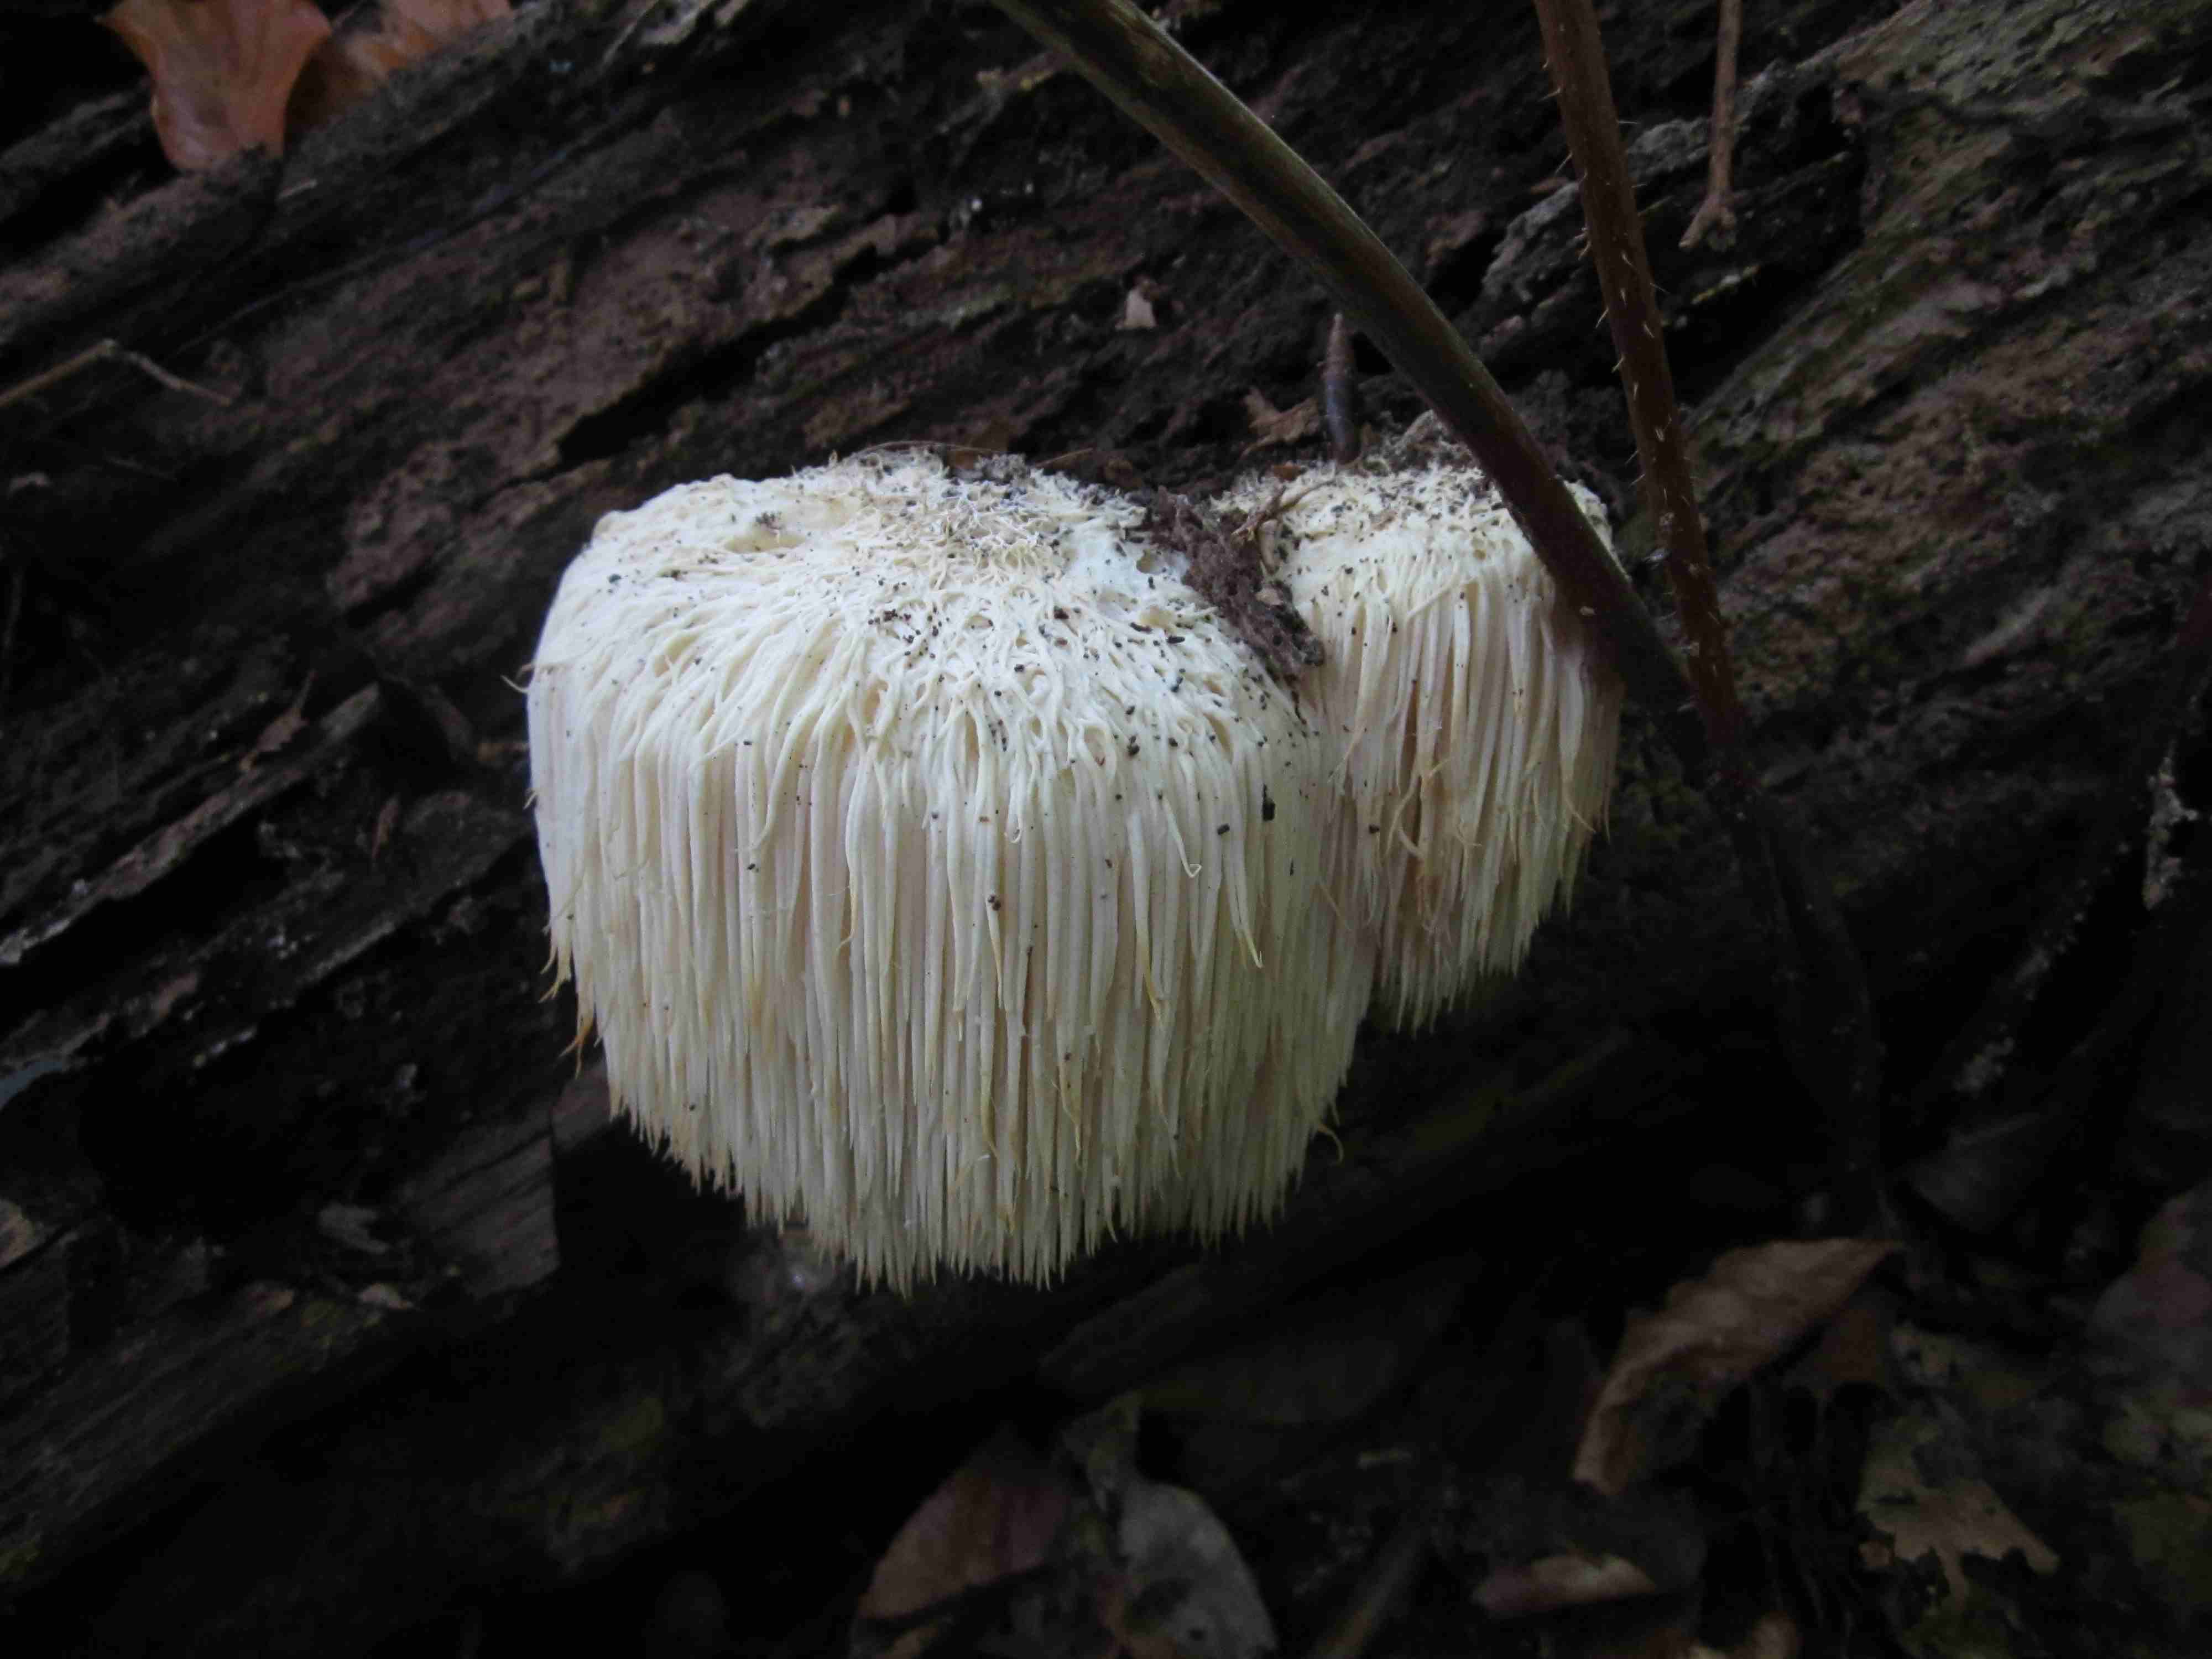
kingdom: Fungi
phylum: Basidiomycota
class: Agaricomycetes
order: Russulales
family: Hericiaceae
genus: Hericium
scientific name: Hericium erinaceus
